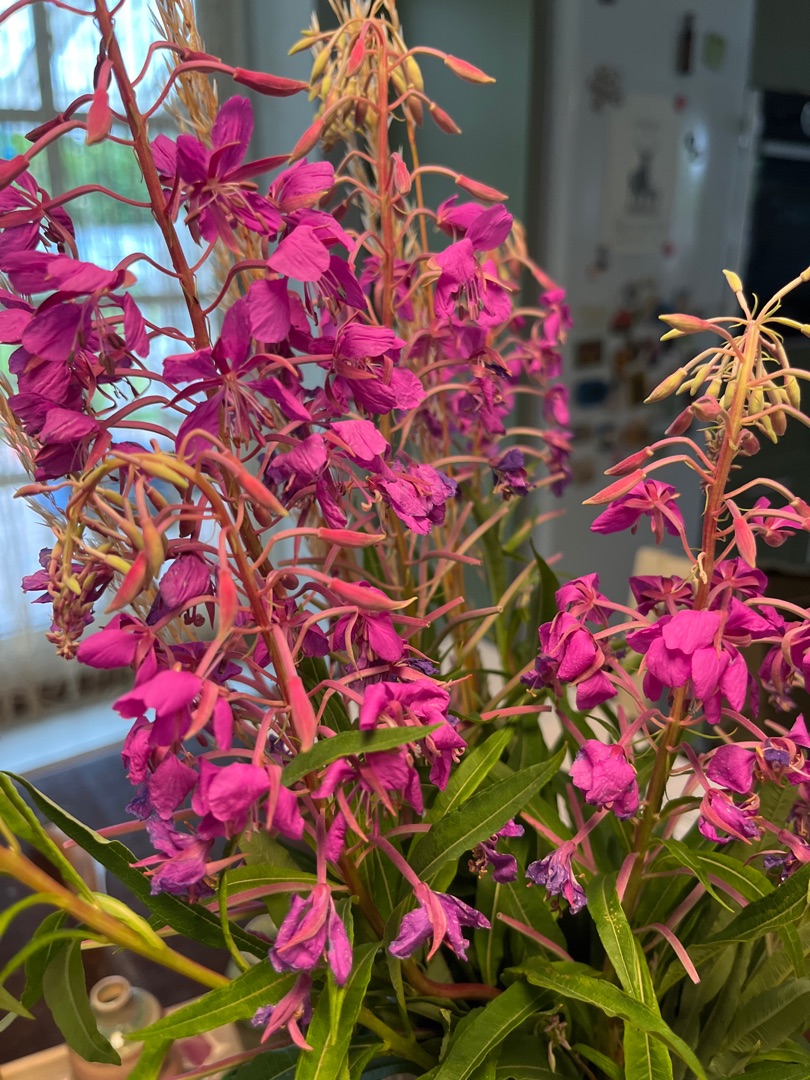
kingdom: Plantae
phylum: Tracheophyta
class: Magnoliopsida
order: Myrtales
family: Onagraceae
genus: Chamaenerion
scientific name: Chamaenerion angustifolium
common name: Gederams
